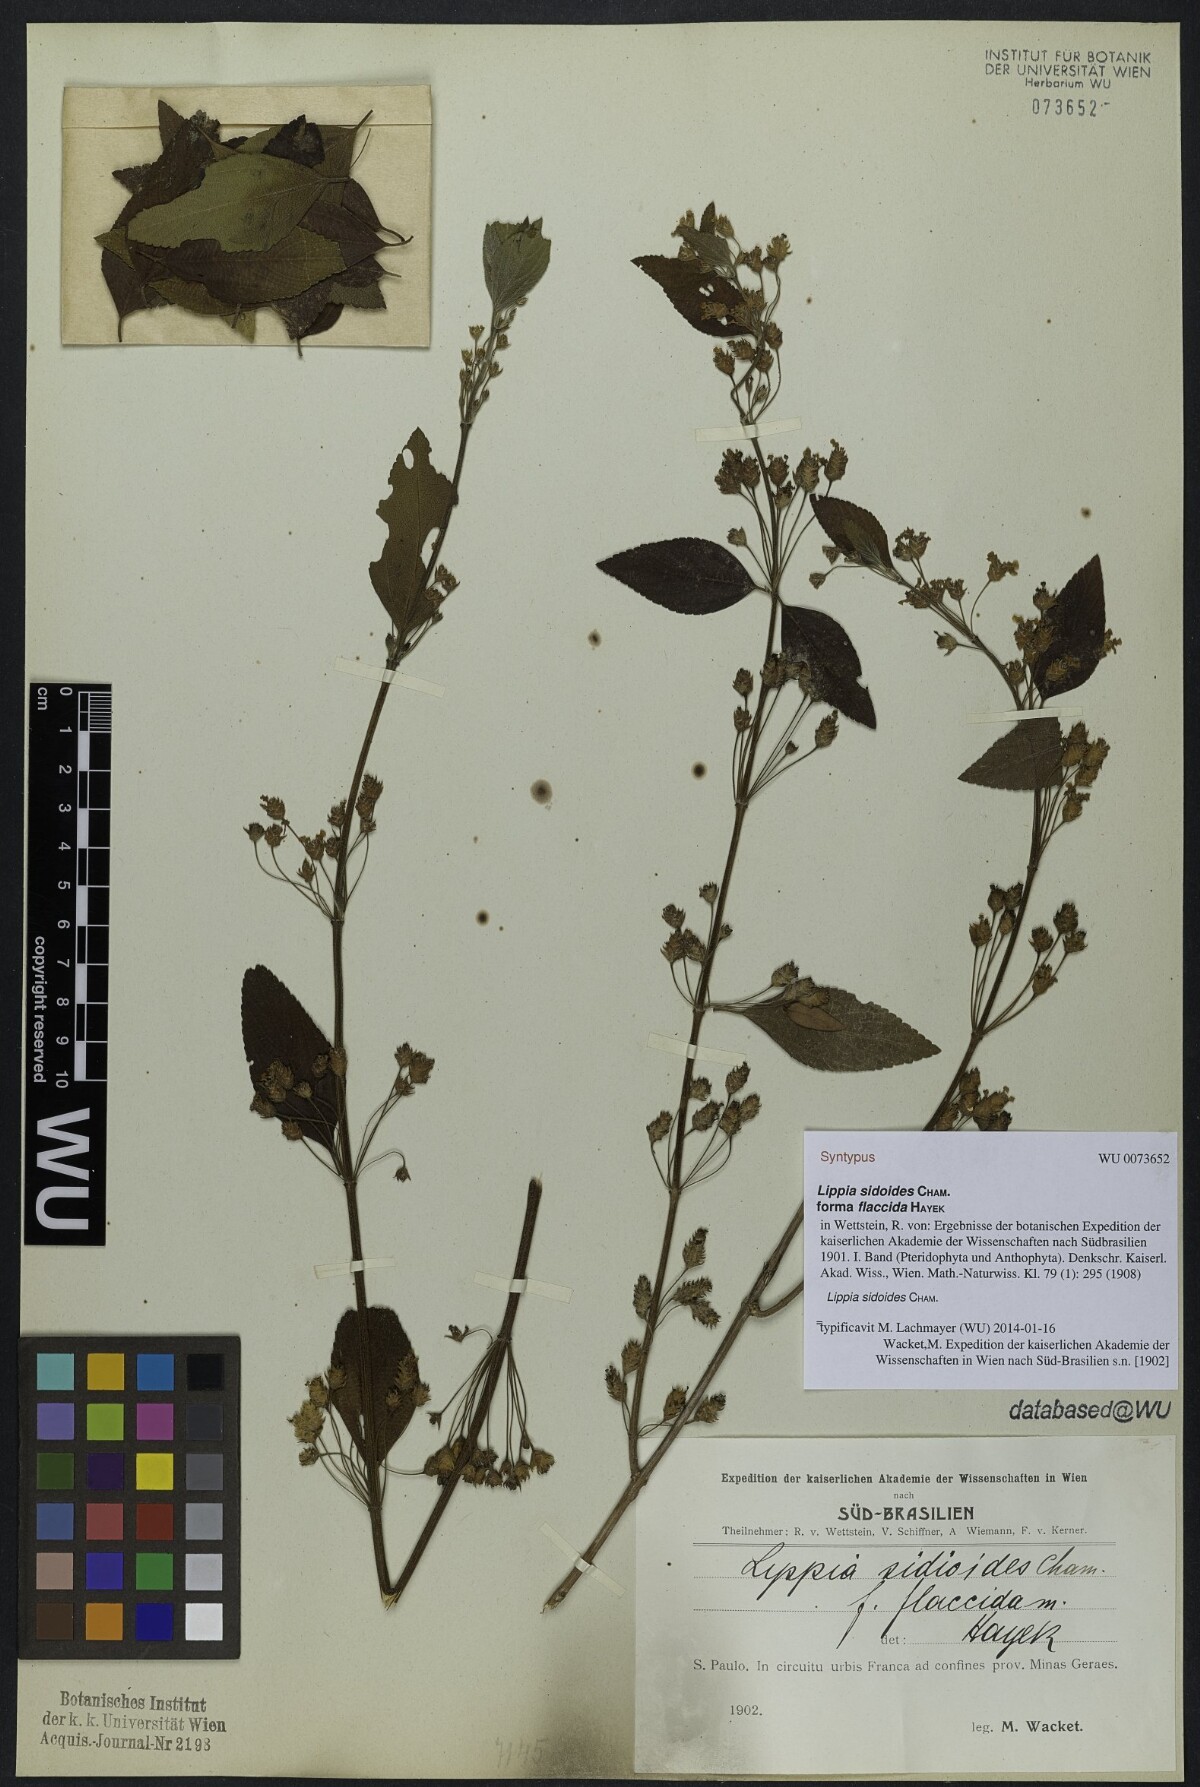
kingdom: Plantae
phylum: Tracheophyta
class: Magnoliopsida
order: Lamiales
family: Verbenaceae
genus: Lippia
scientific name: Lippia origanoides
